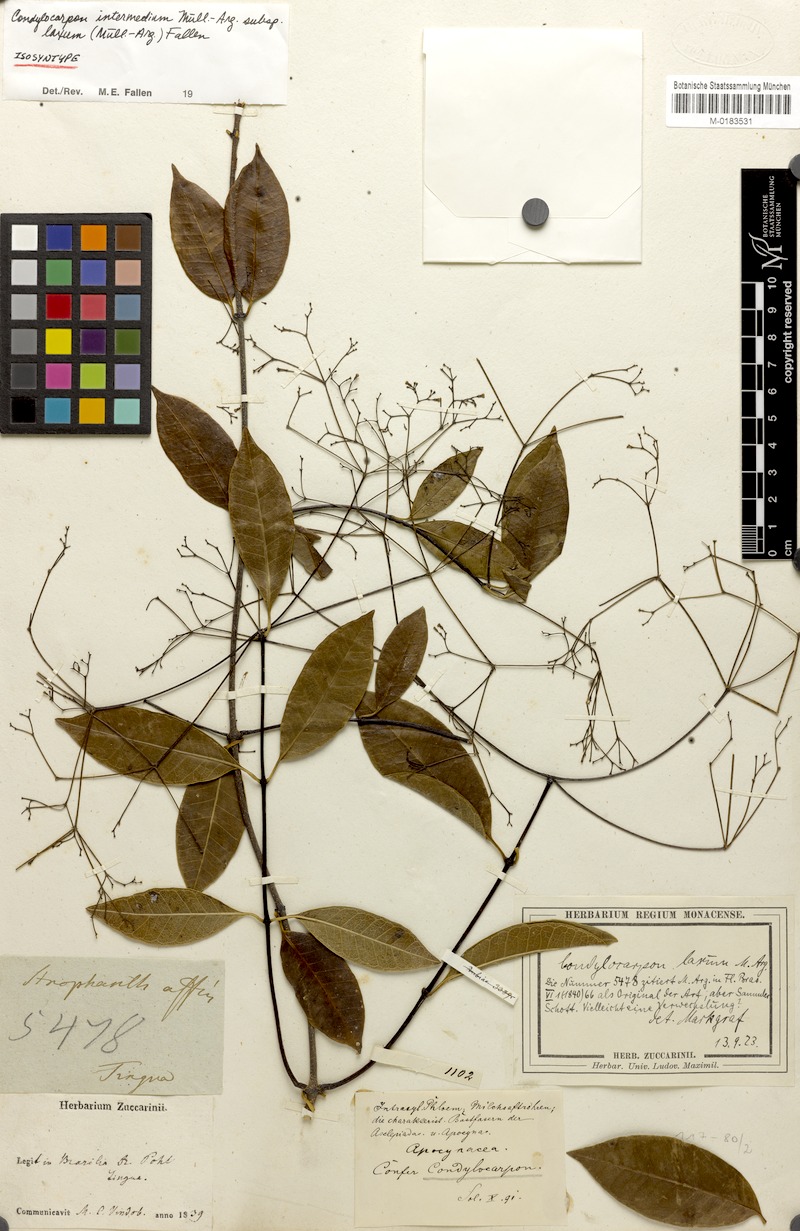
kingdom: Plantae
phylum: Tracheophyta
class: Magnoliopsida
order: Gentianales
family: Apocynaceae
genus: Condylocarpon
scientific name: Condylocarpon intermedium
